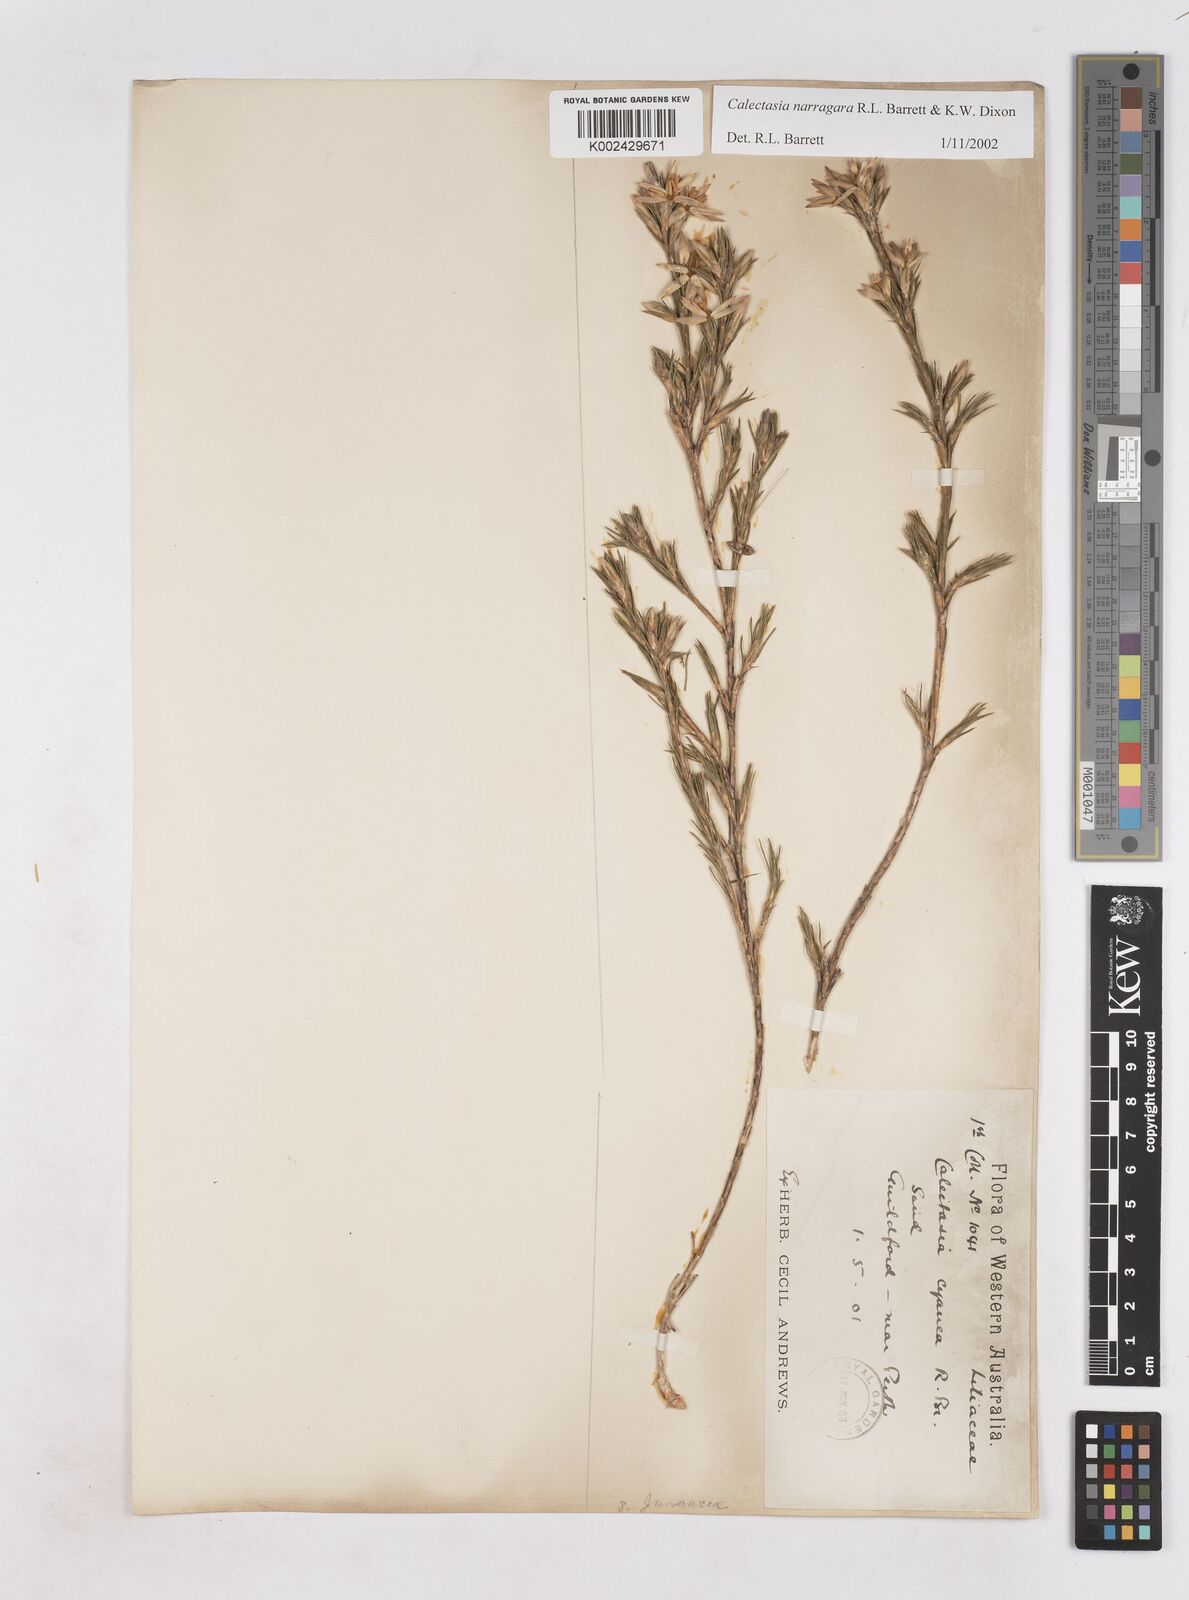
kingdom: Plantae
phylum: Tracheophyta
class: Liliopsida
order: Arecales
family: Dasypogonaceae
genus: Calectasia
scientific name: Calectasia narragara
